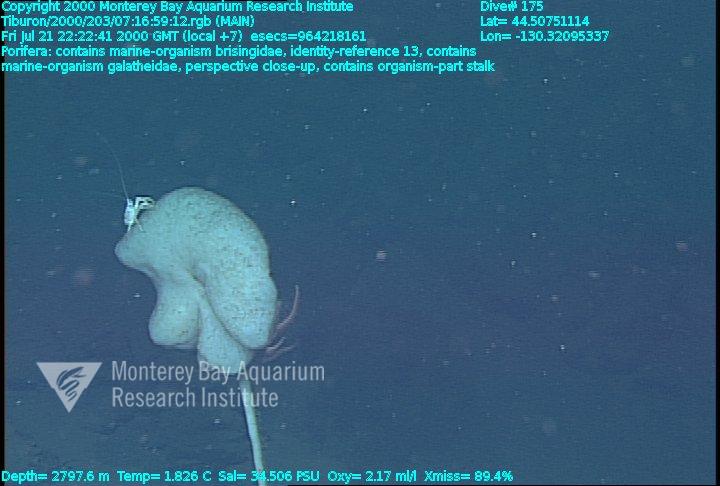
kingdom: Animalia
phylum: Porifera
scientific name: Porifera
